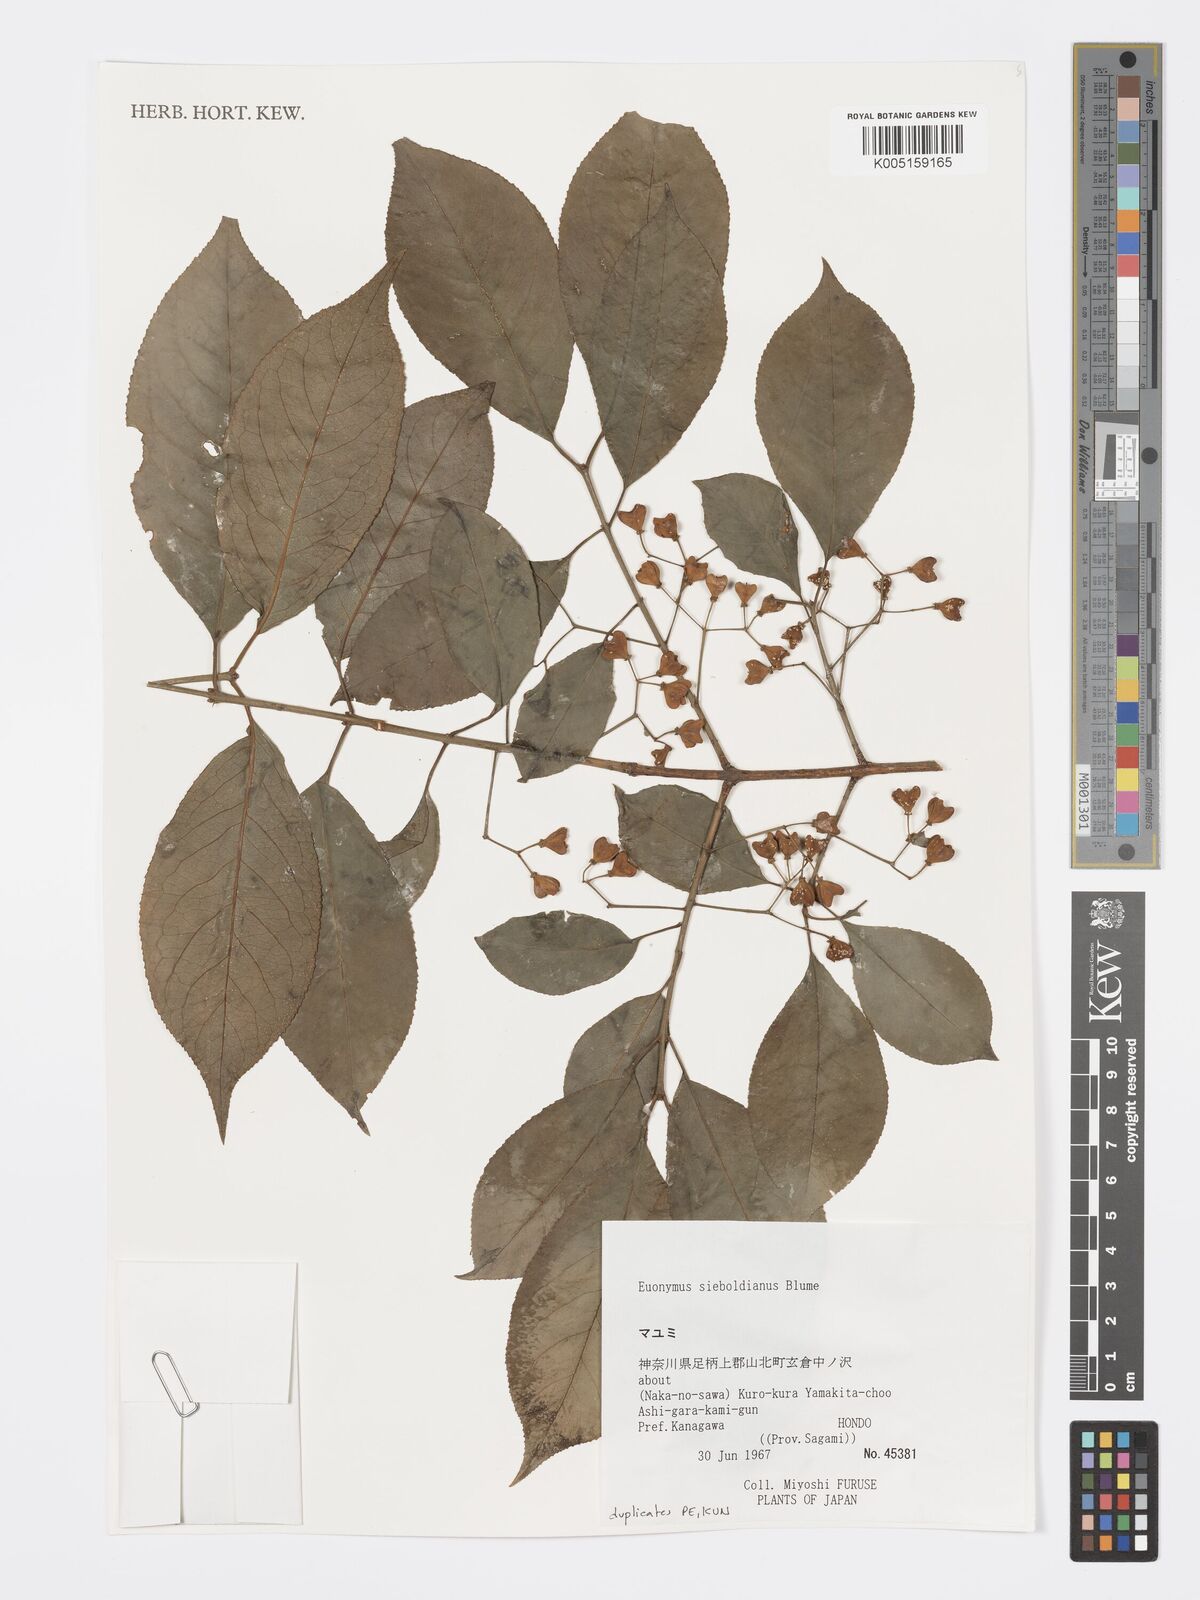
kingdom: Plantae
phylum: Tracheophyta
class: Magnoliopsida
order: Celastrales
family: Celastraceae
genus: Euonymus
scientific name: Euonymus hamiltonianus
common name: Hamilton's spindletree
